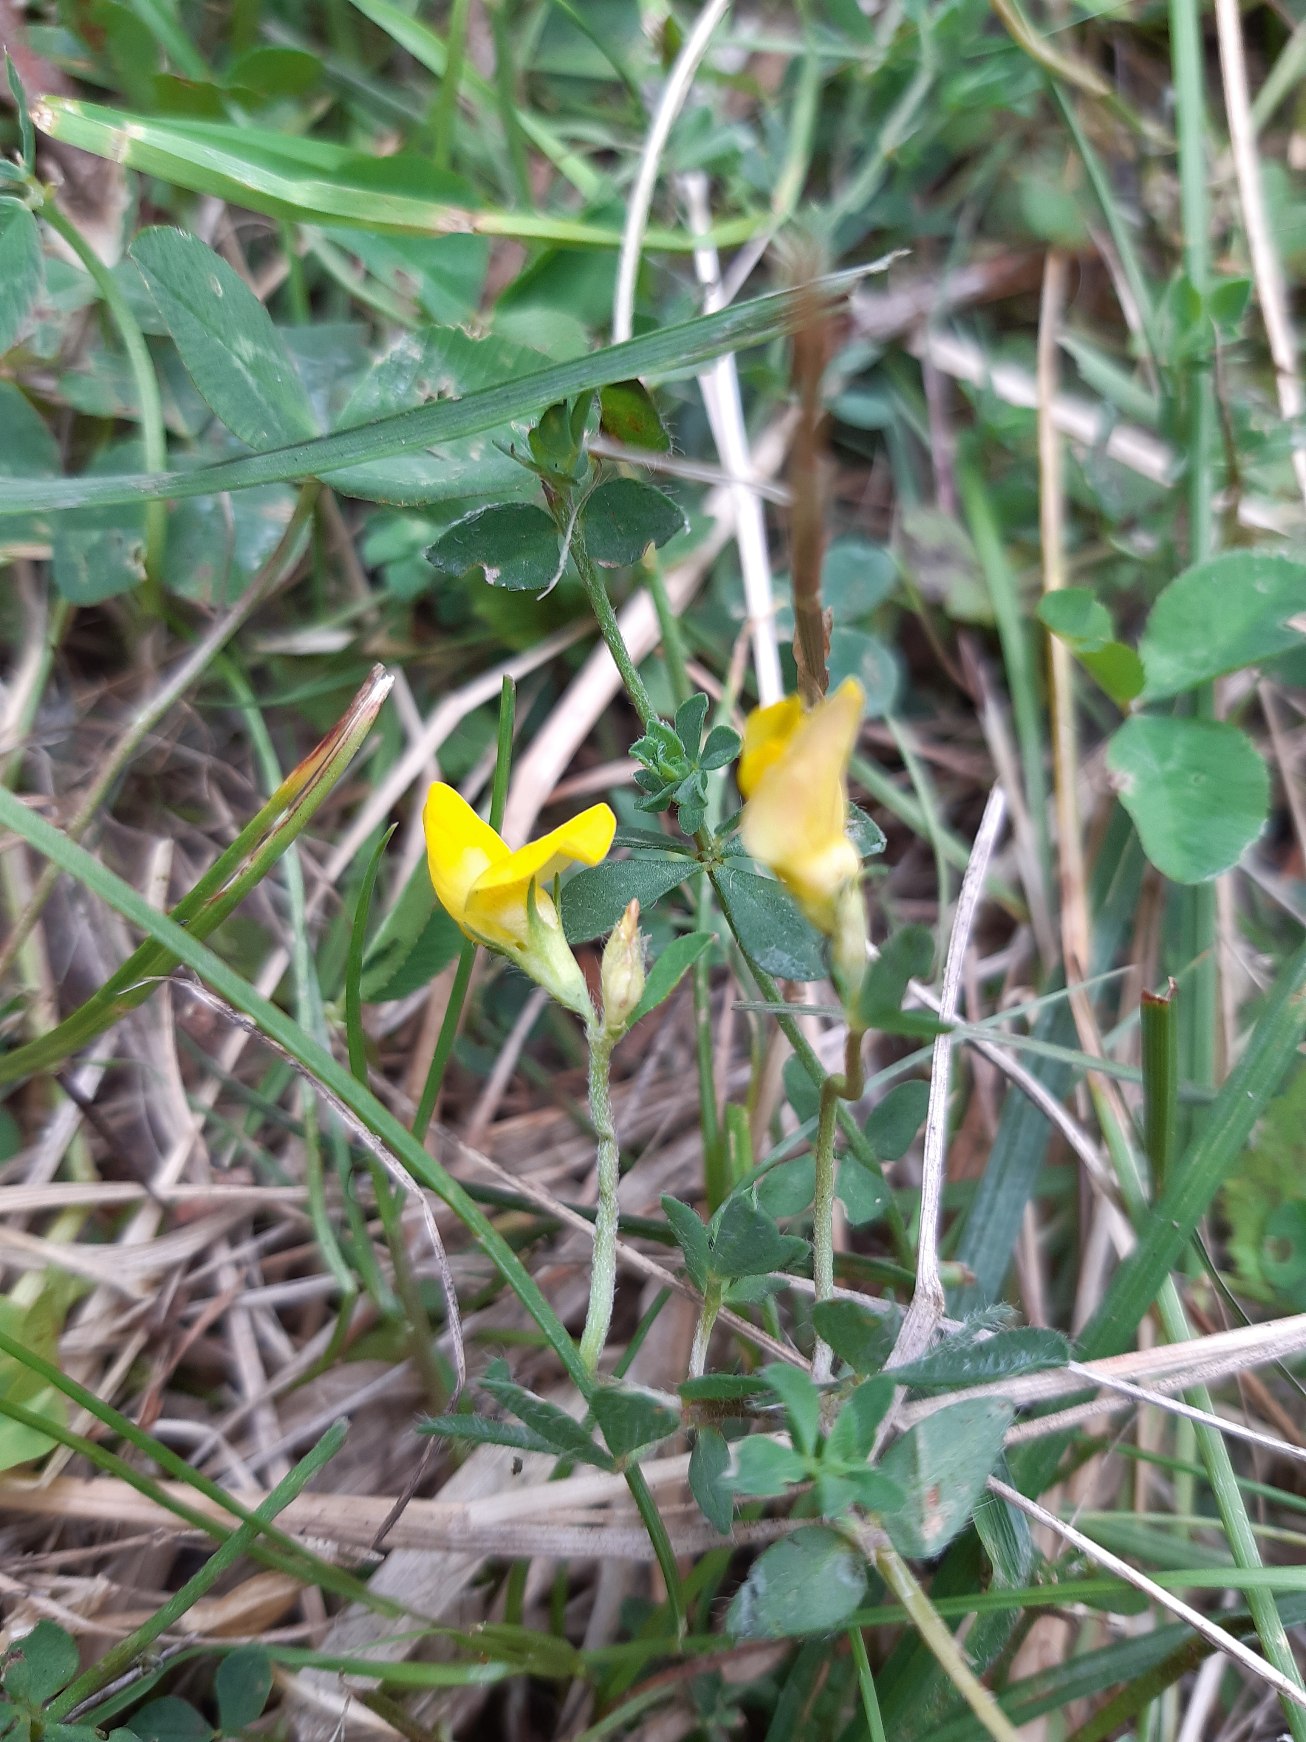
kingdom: Plantae
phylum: Tracheophyta
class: Magnoliopsida
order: Fabales
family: Fabaceae
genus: Lotus
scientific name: Lotus corniculatus
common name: Almindelig kællingetand
